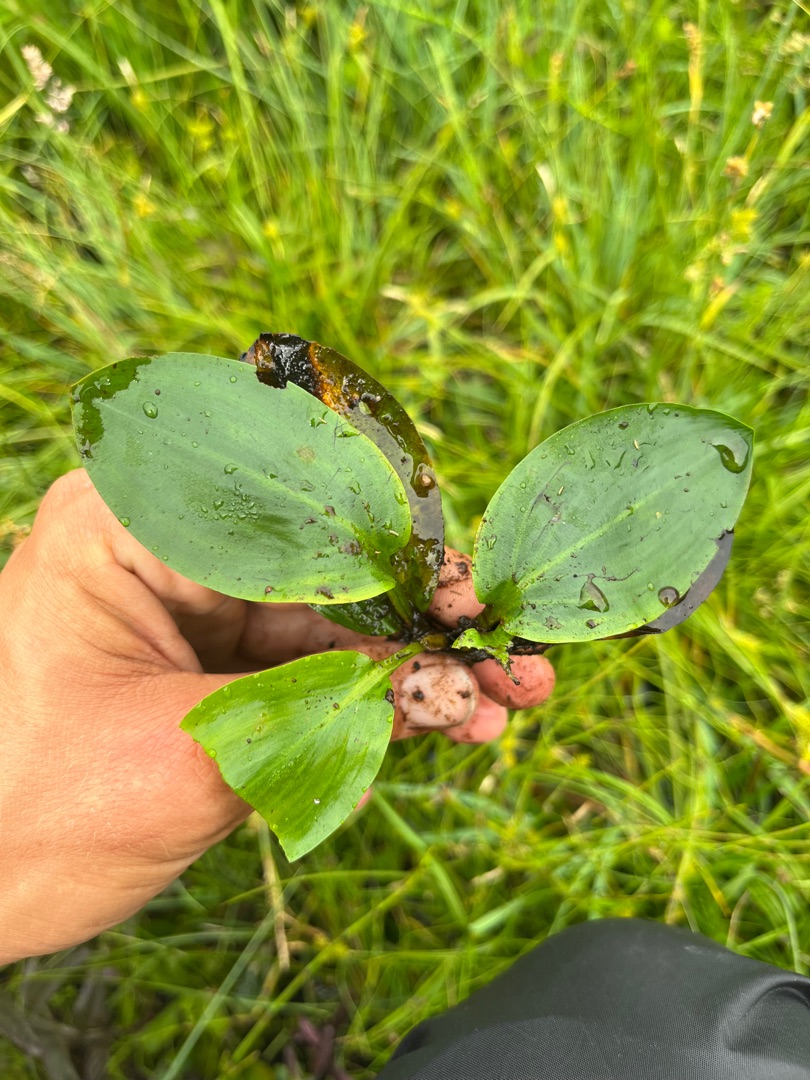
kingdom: Plantae
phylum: Tracheophyta
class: Liliopsida
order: Alismatales
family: Potamogetonaceae
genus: Potamogeton
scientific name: Potamogeton polygonifolius
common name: Aflangbladet vandaks
